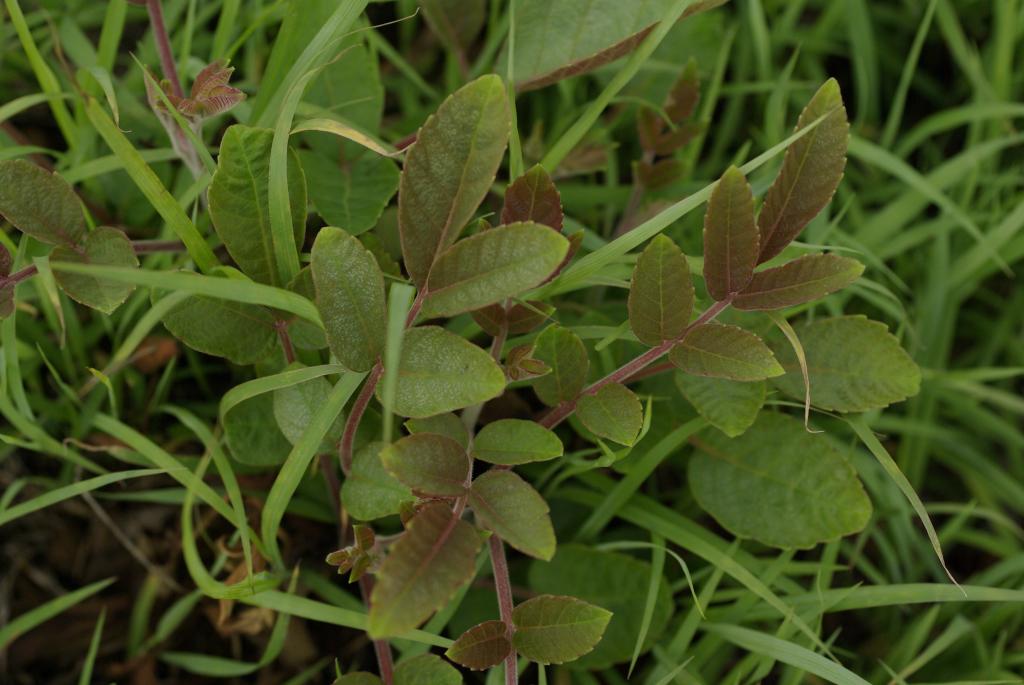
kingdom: Plantae
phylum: Tracheophyta
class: Magnoliopsida
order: Sapindales
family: Anacardiaceae
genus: Rhus
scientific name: Rhus chinensis
